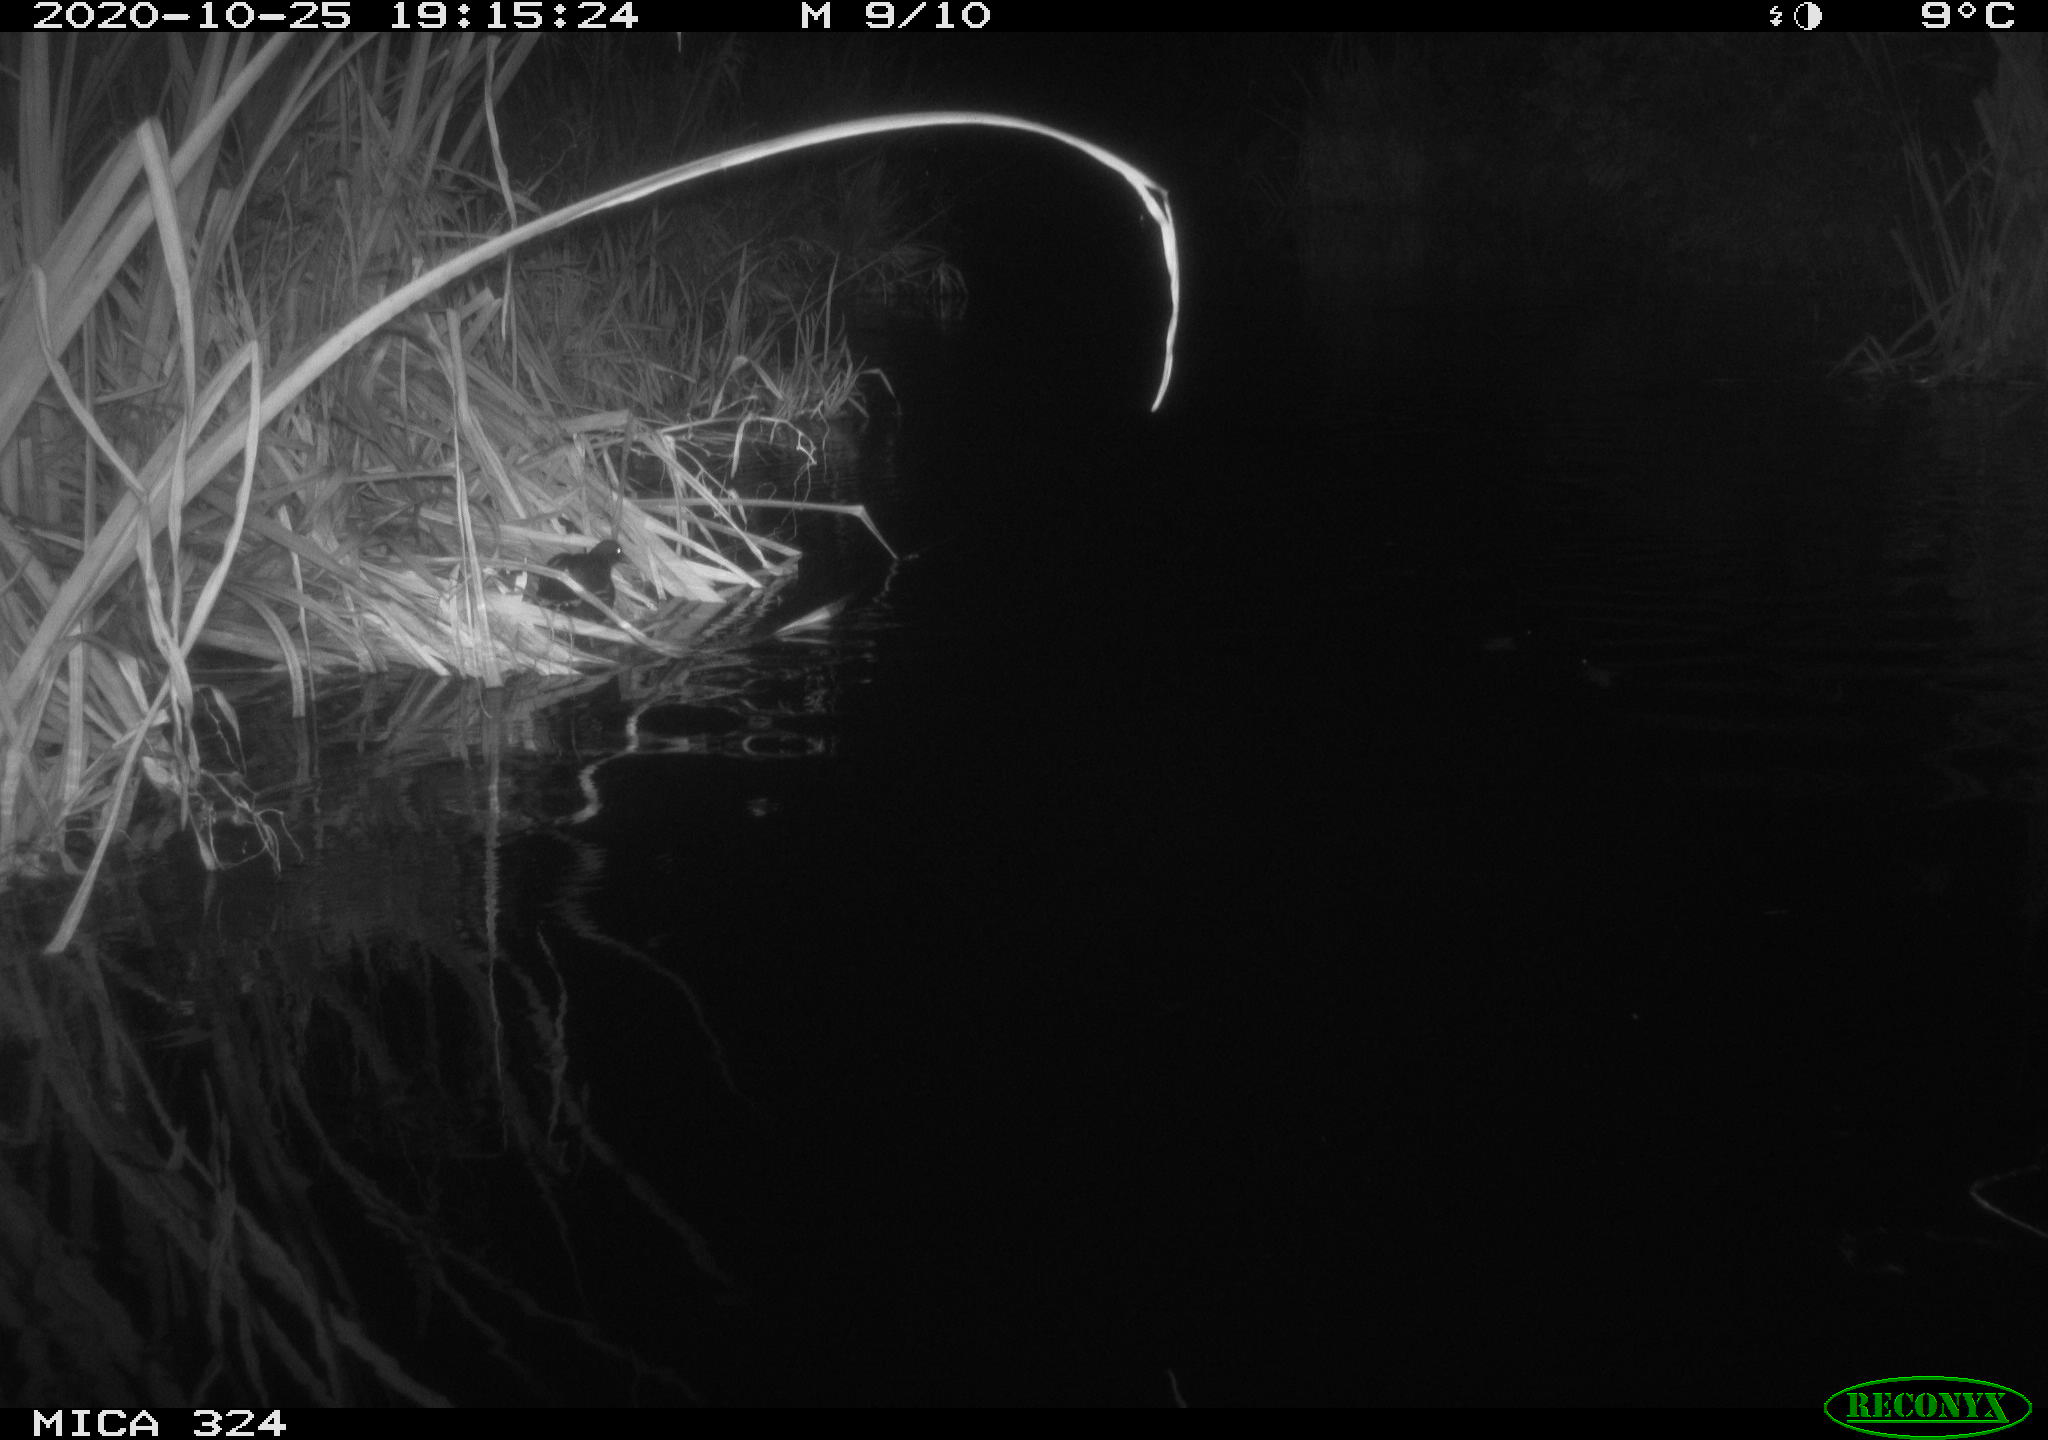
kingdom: Animalia
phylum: Chordata
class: Aves
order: Gruiformes
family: Rallidae
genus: Gallinula
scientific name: Gallinula chloropus
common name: Common moorhen
